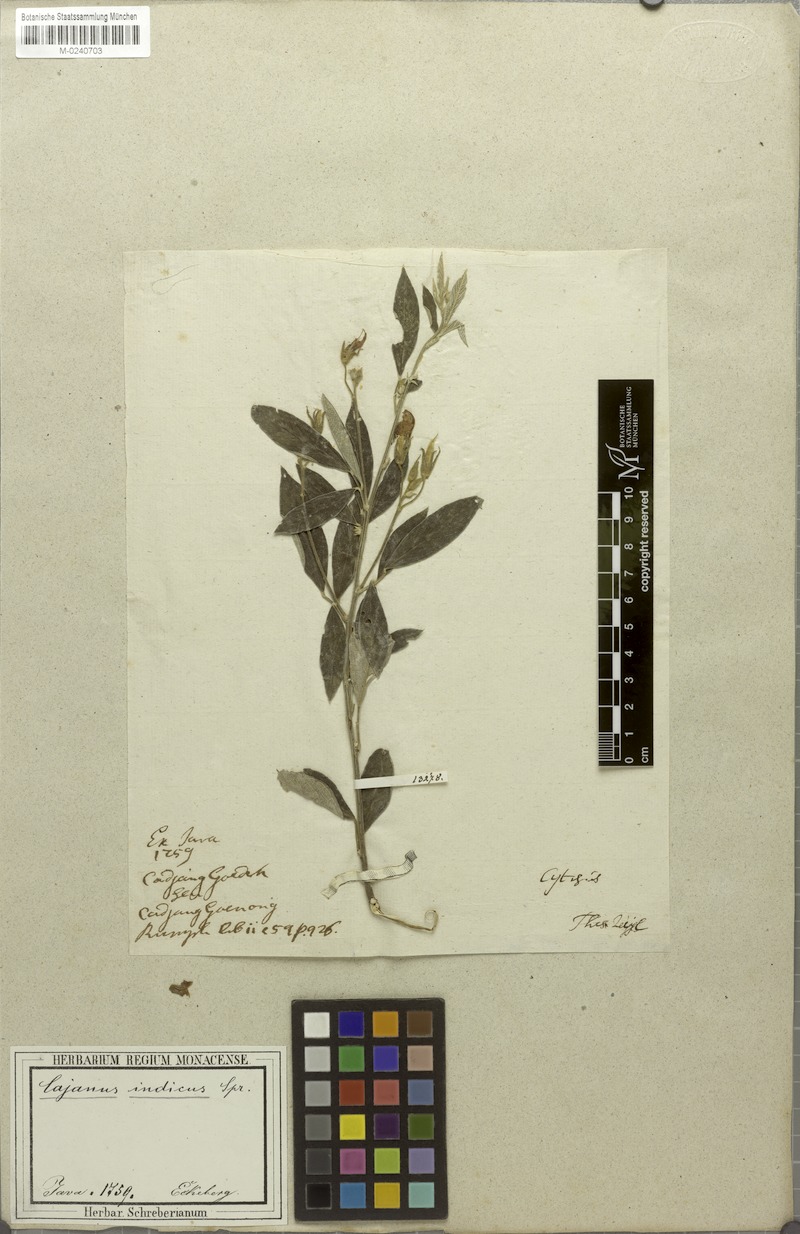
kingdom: Plantae
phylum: Tracheophyta
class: Magnoliopsida
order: Fabales
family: Fabaceae
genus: Cajanus
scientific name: Cajanus cajan
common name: Pigeonpea
